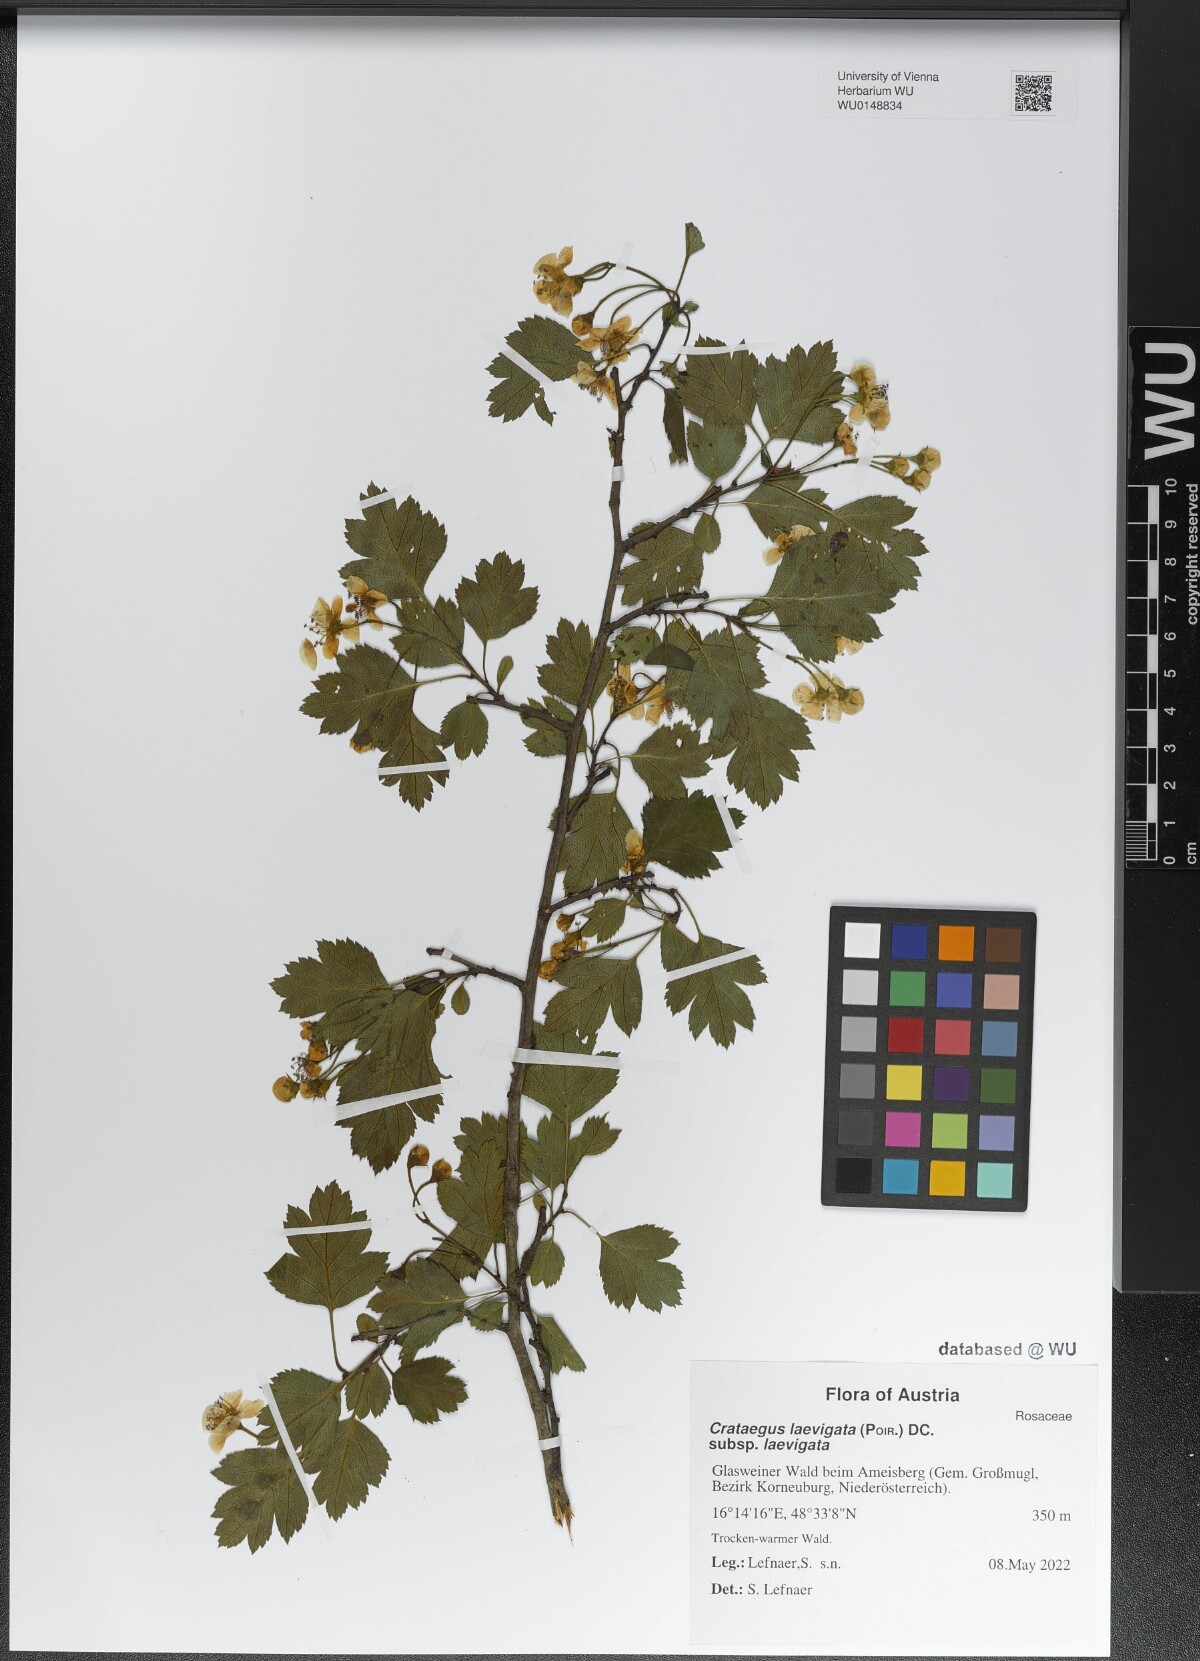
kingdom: Plantae
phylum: Tracheophyta
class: Magnoliopsida
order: Rosales
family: Rosaceae
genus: Crataegus
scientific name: Crataegus laevigata
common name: Midland hawthorn
